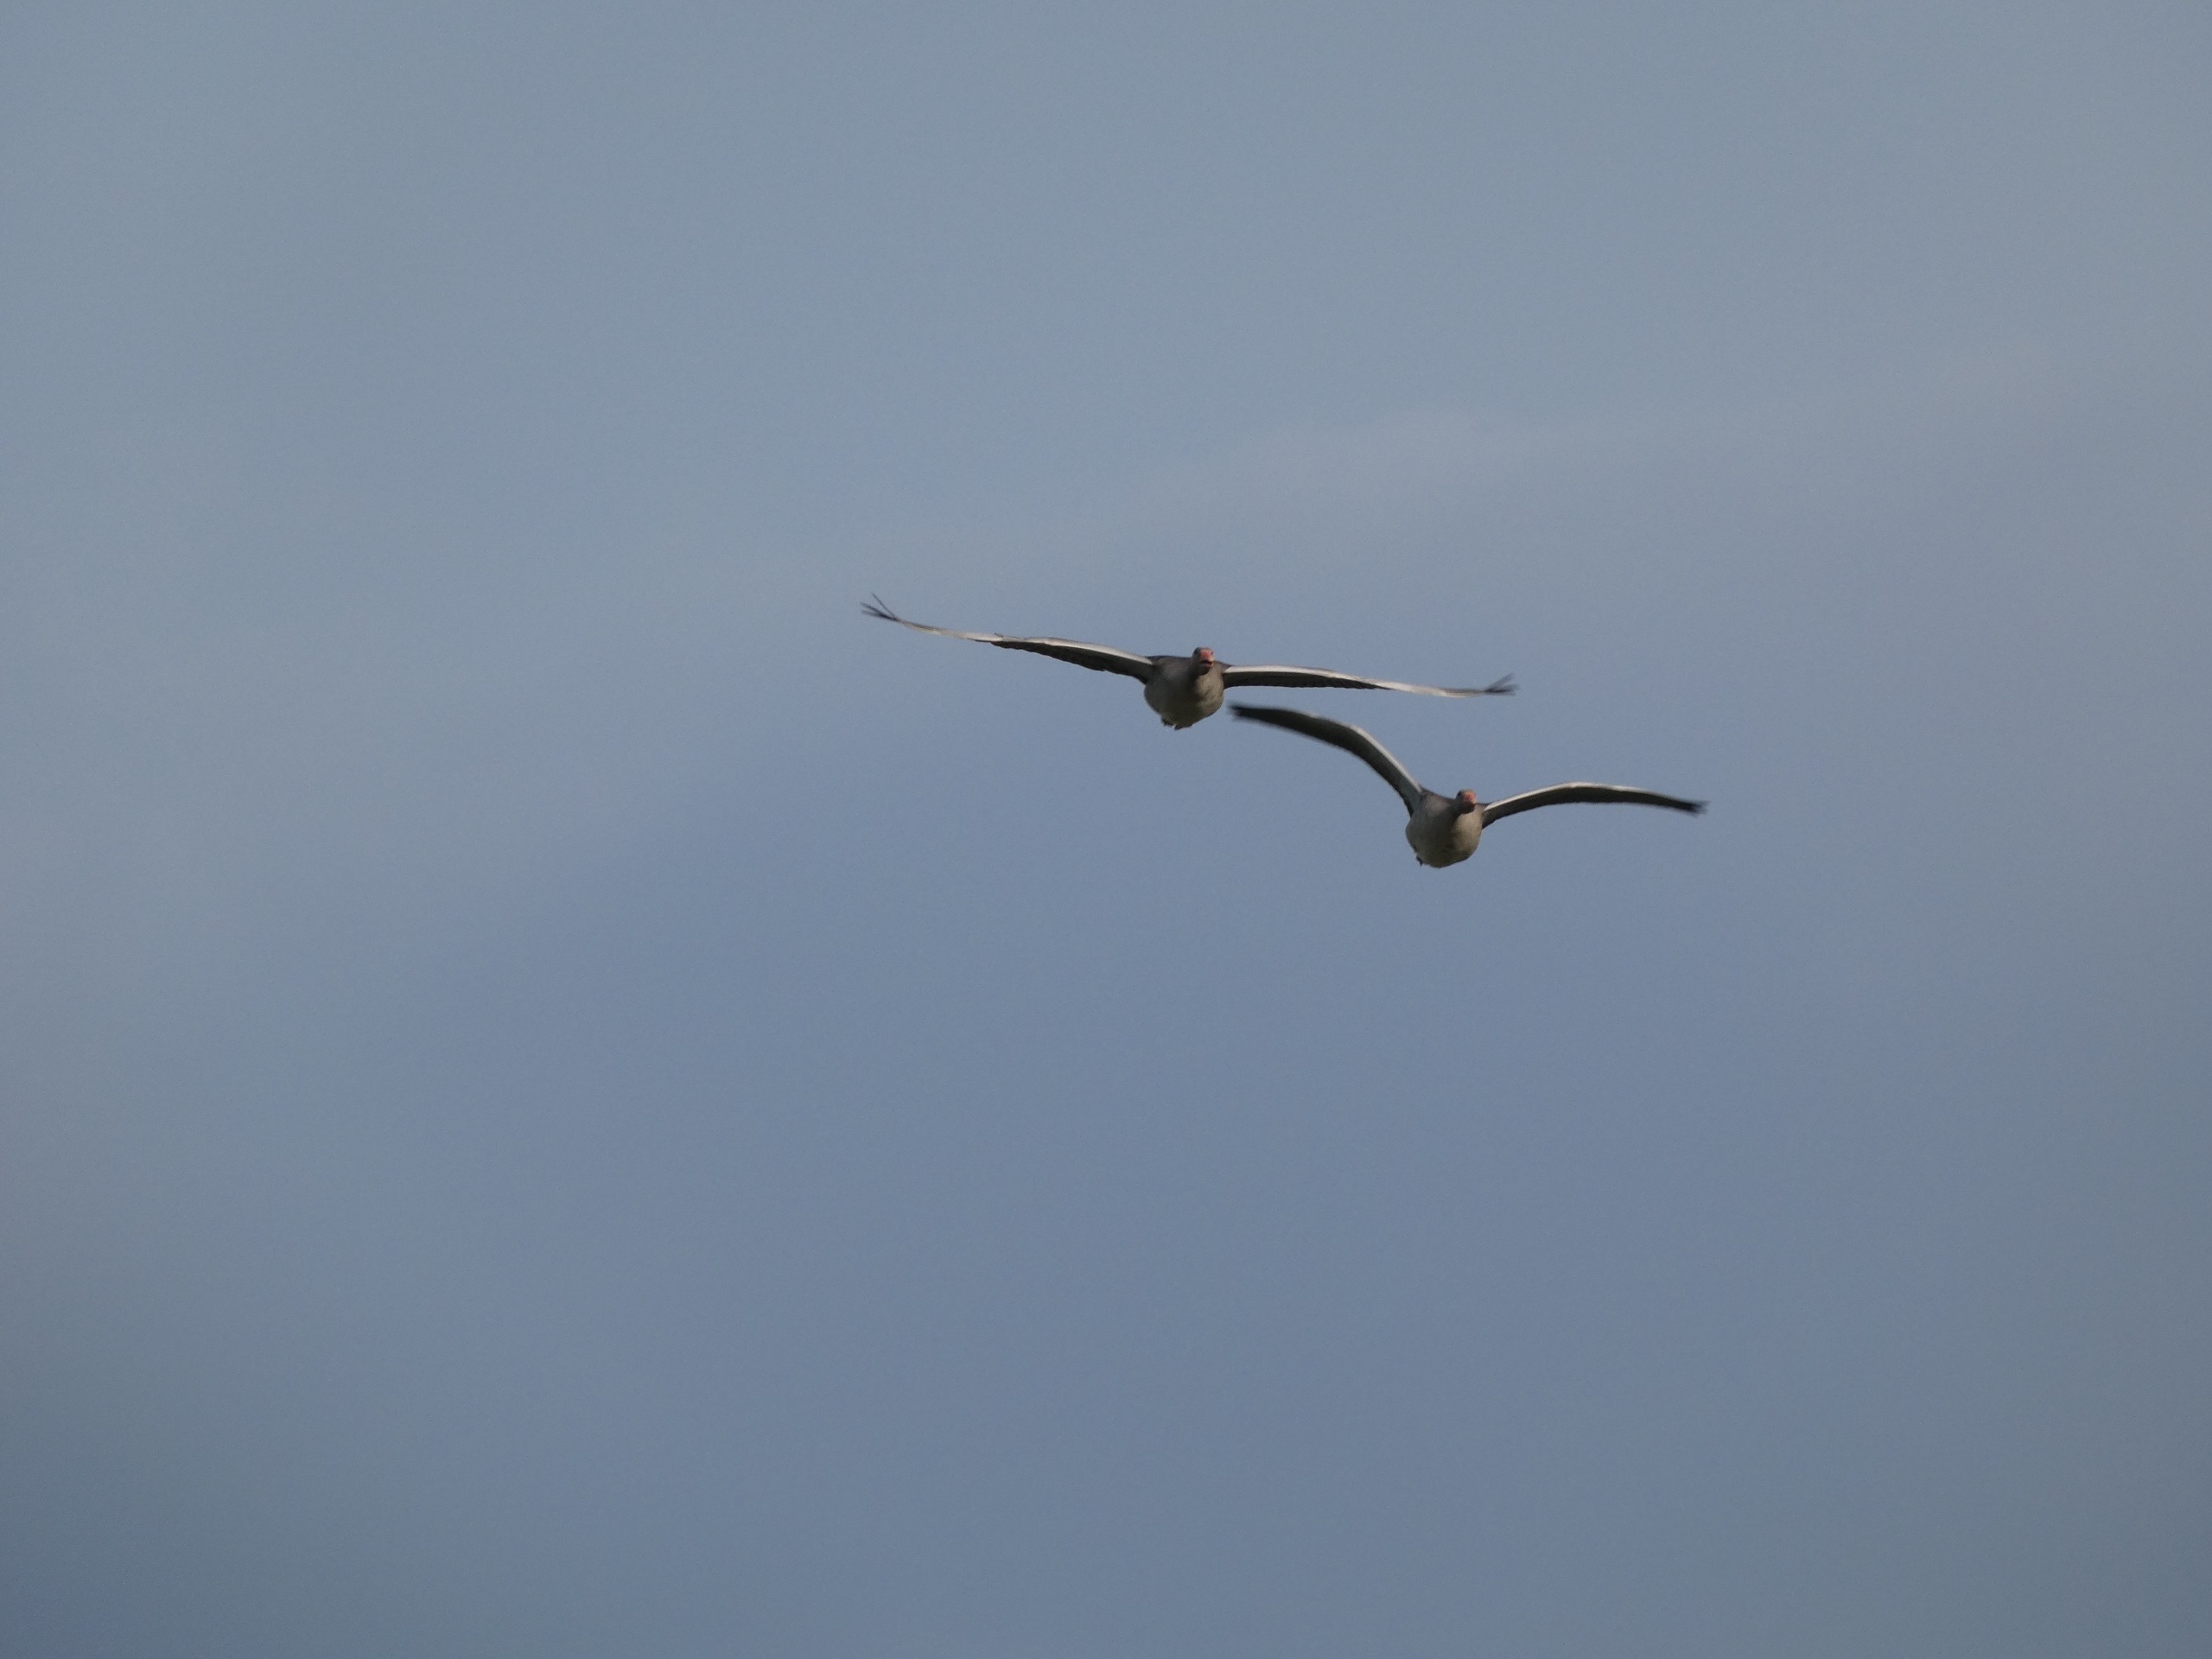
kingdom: Animalia
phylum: Chordata
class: Aves
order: Anseriformes
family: Anatidae
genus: Anser
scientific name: Anser anser
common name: Grågås
